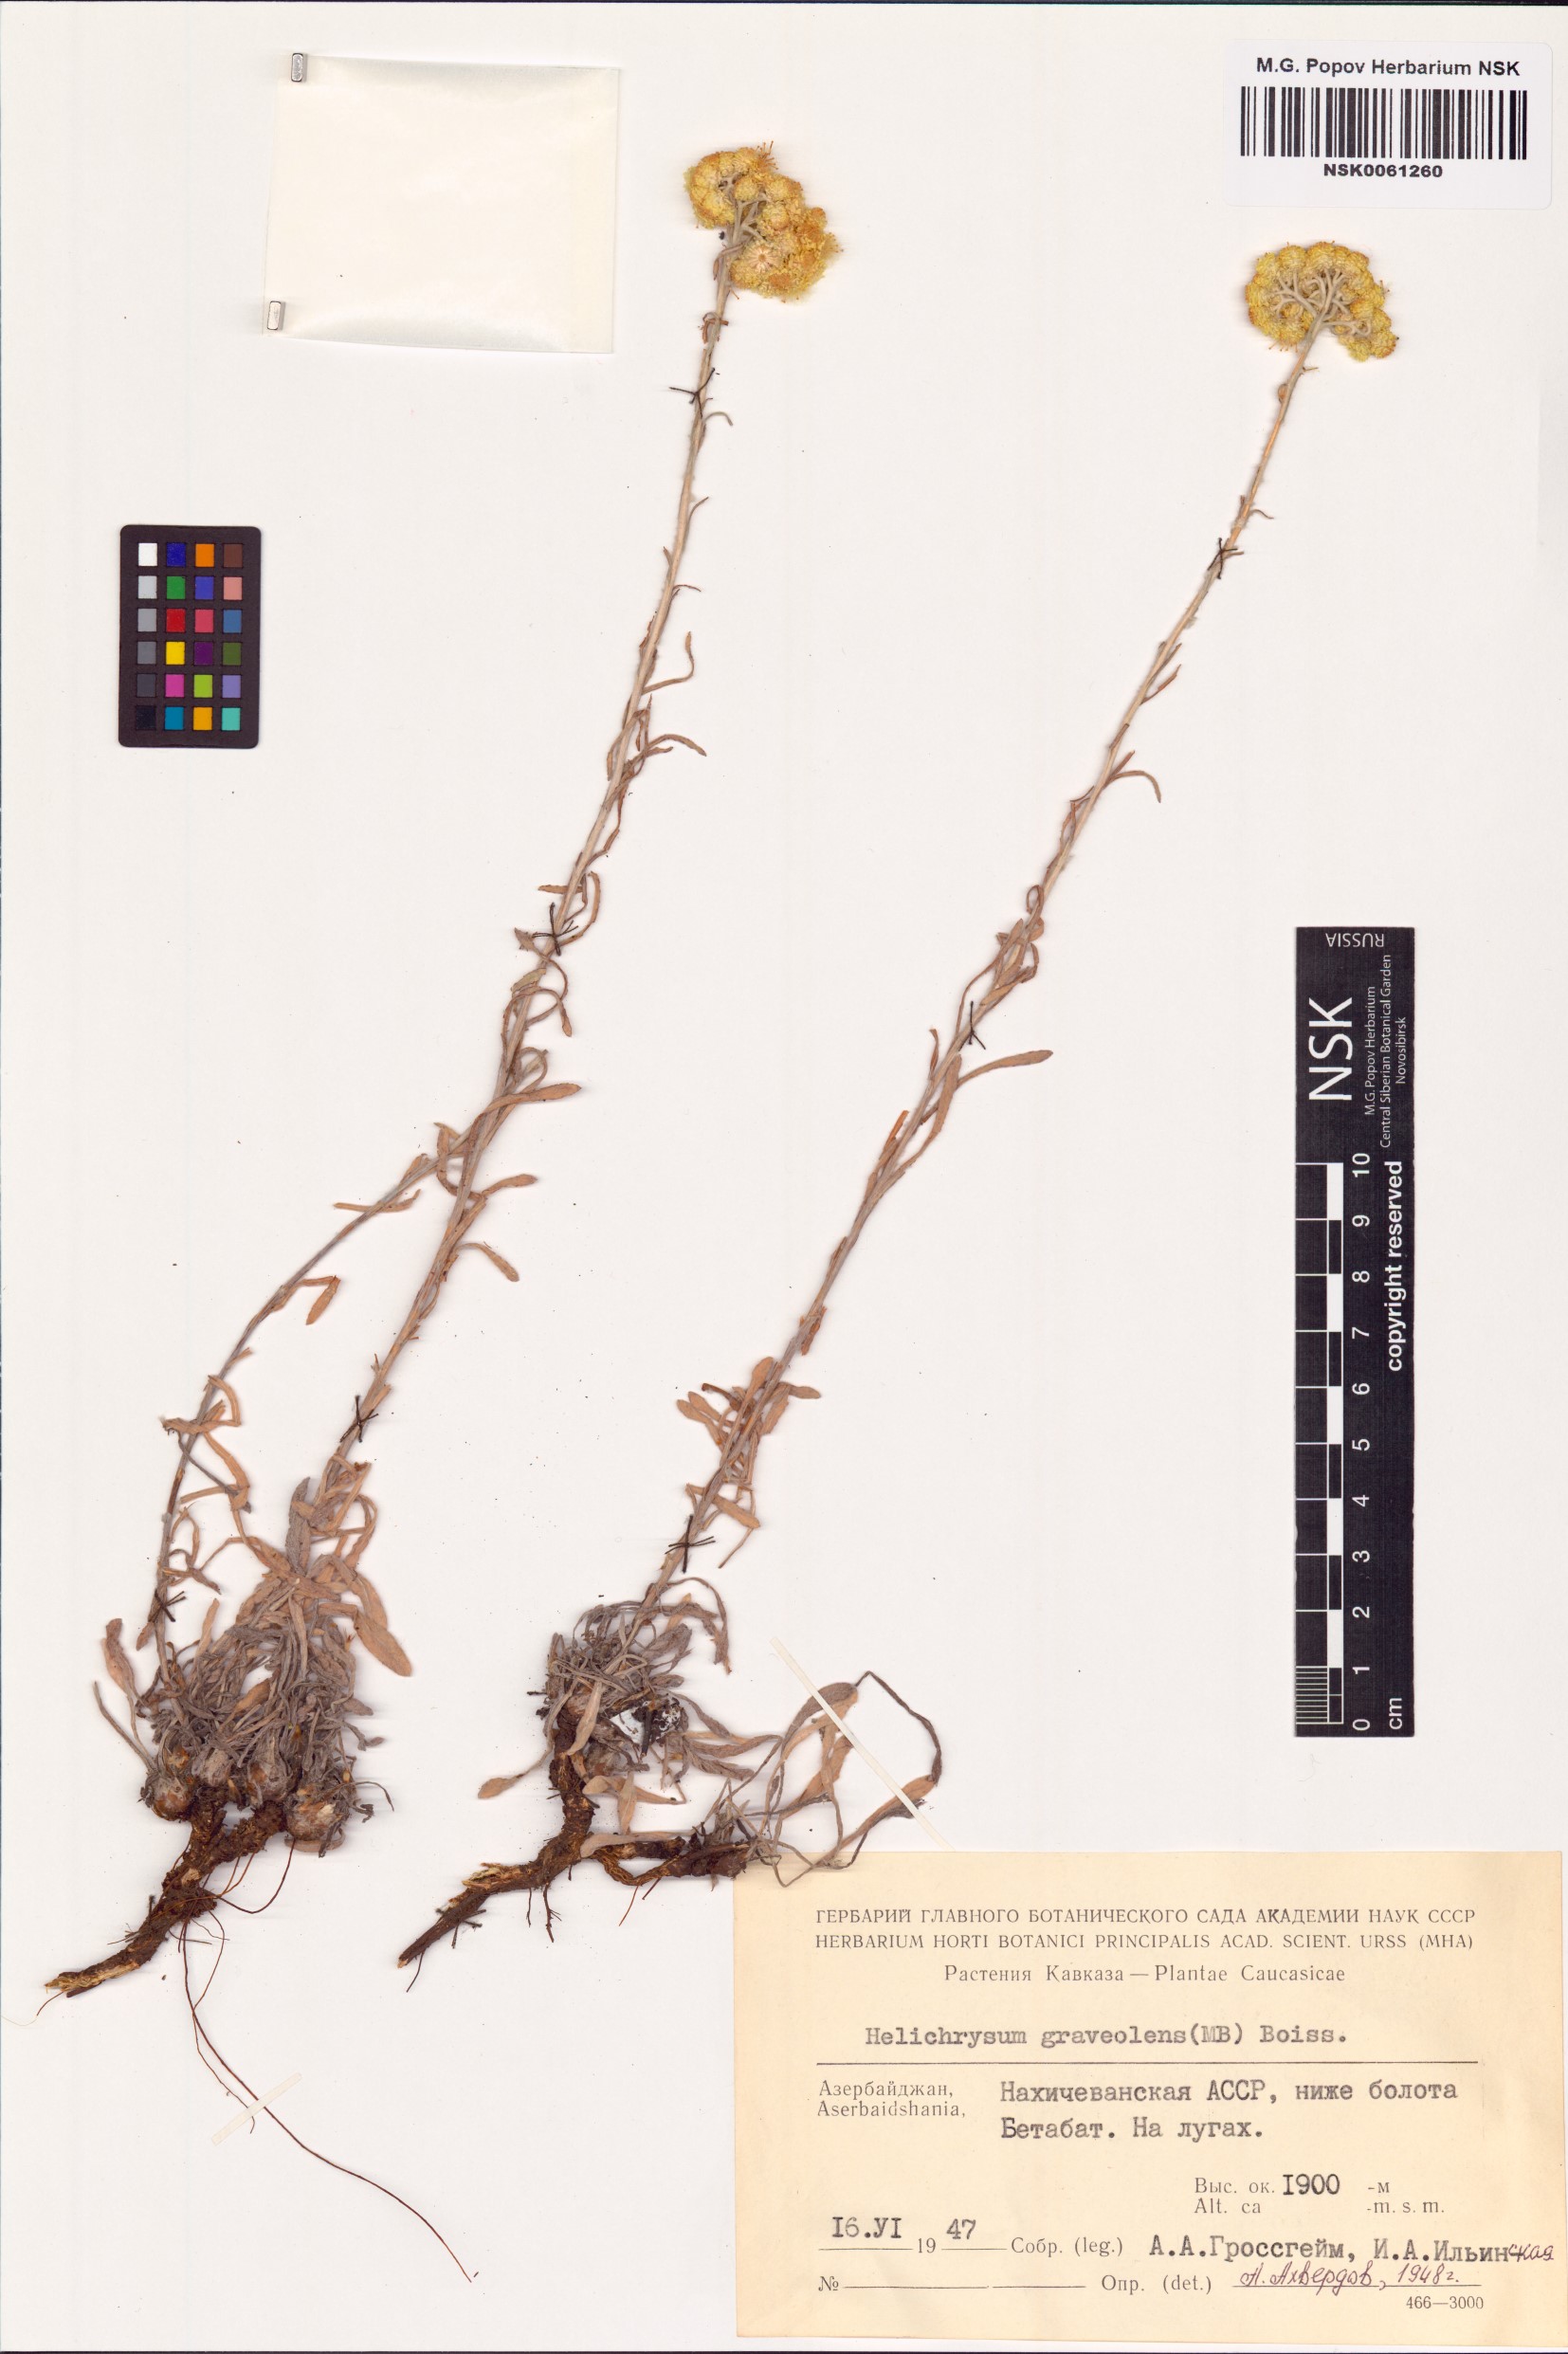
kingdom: Plantae
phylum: Tracheophyta
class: Magnoliopsida
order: Asterales
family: Asteraceae
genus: Helichrysum
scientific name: Helichrysum graveolens
